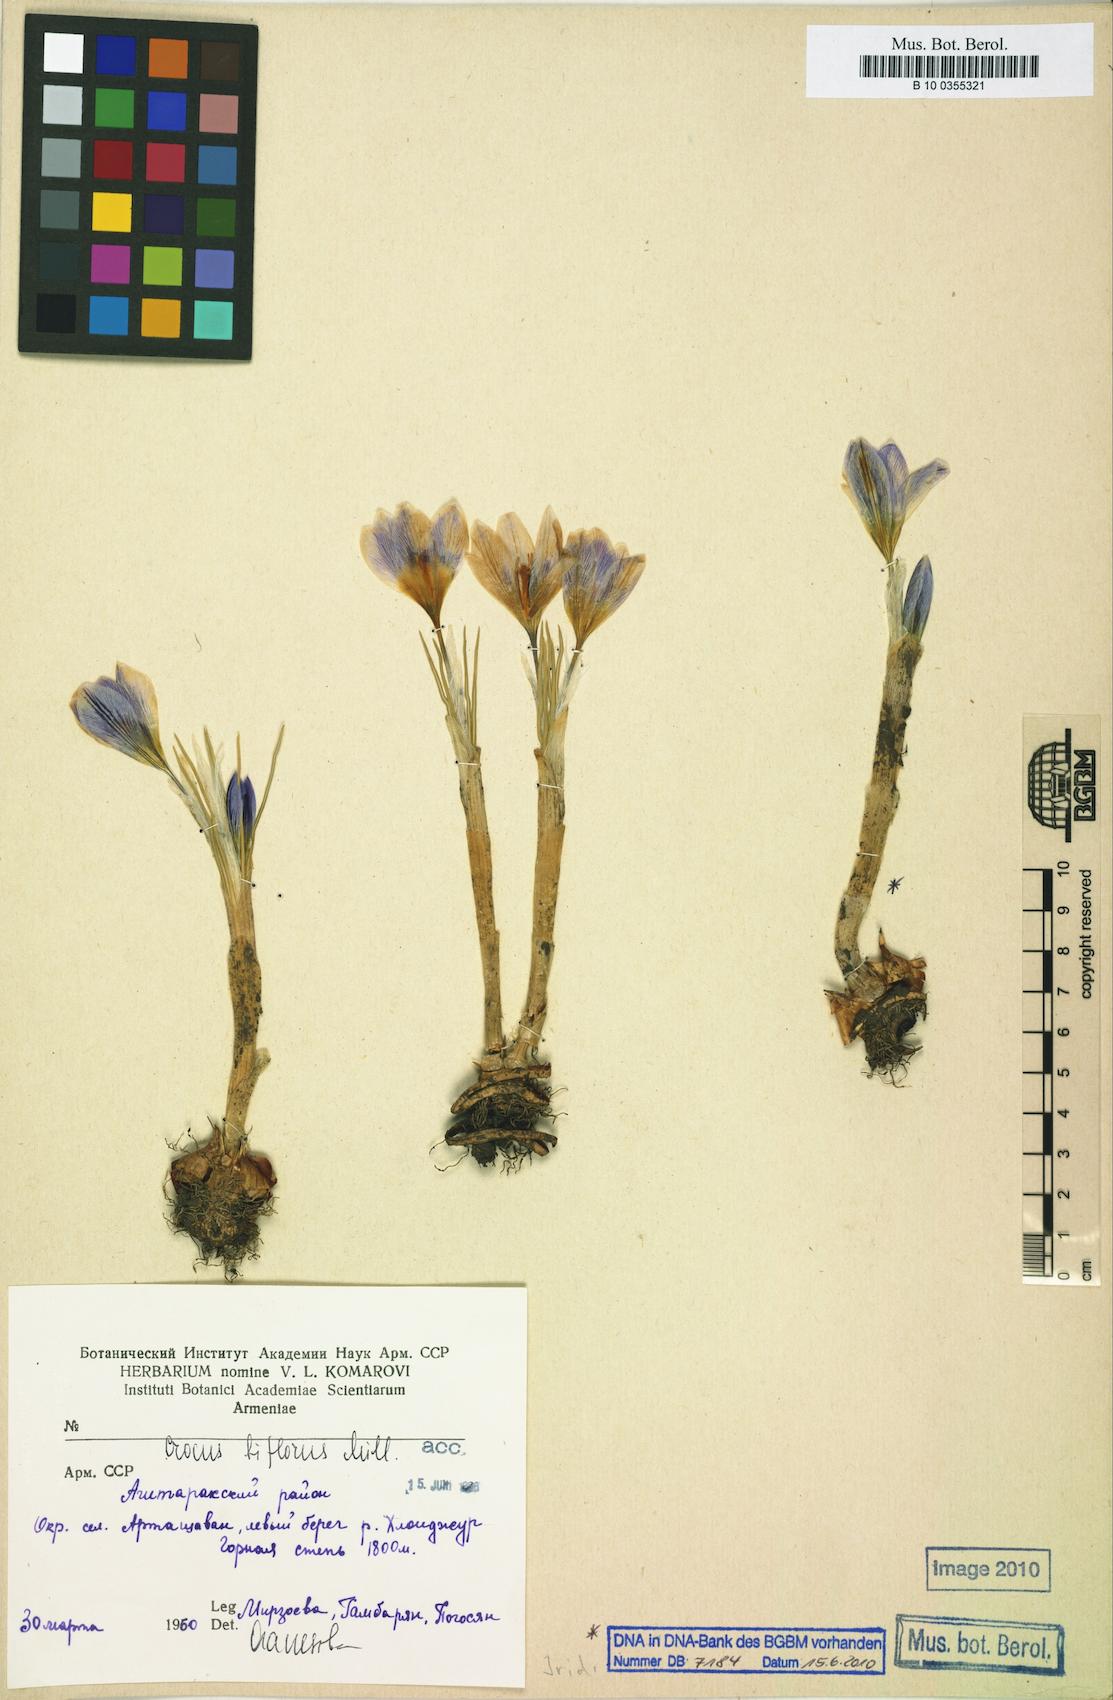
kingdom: Plantae
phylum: Tracheophyta
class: Liliopsida
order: Asparagales
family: Iridaceae
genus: Crocus
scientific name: Crocus biflorus
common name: Silvery crocus
